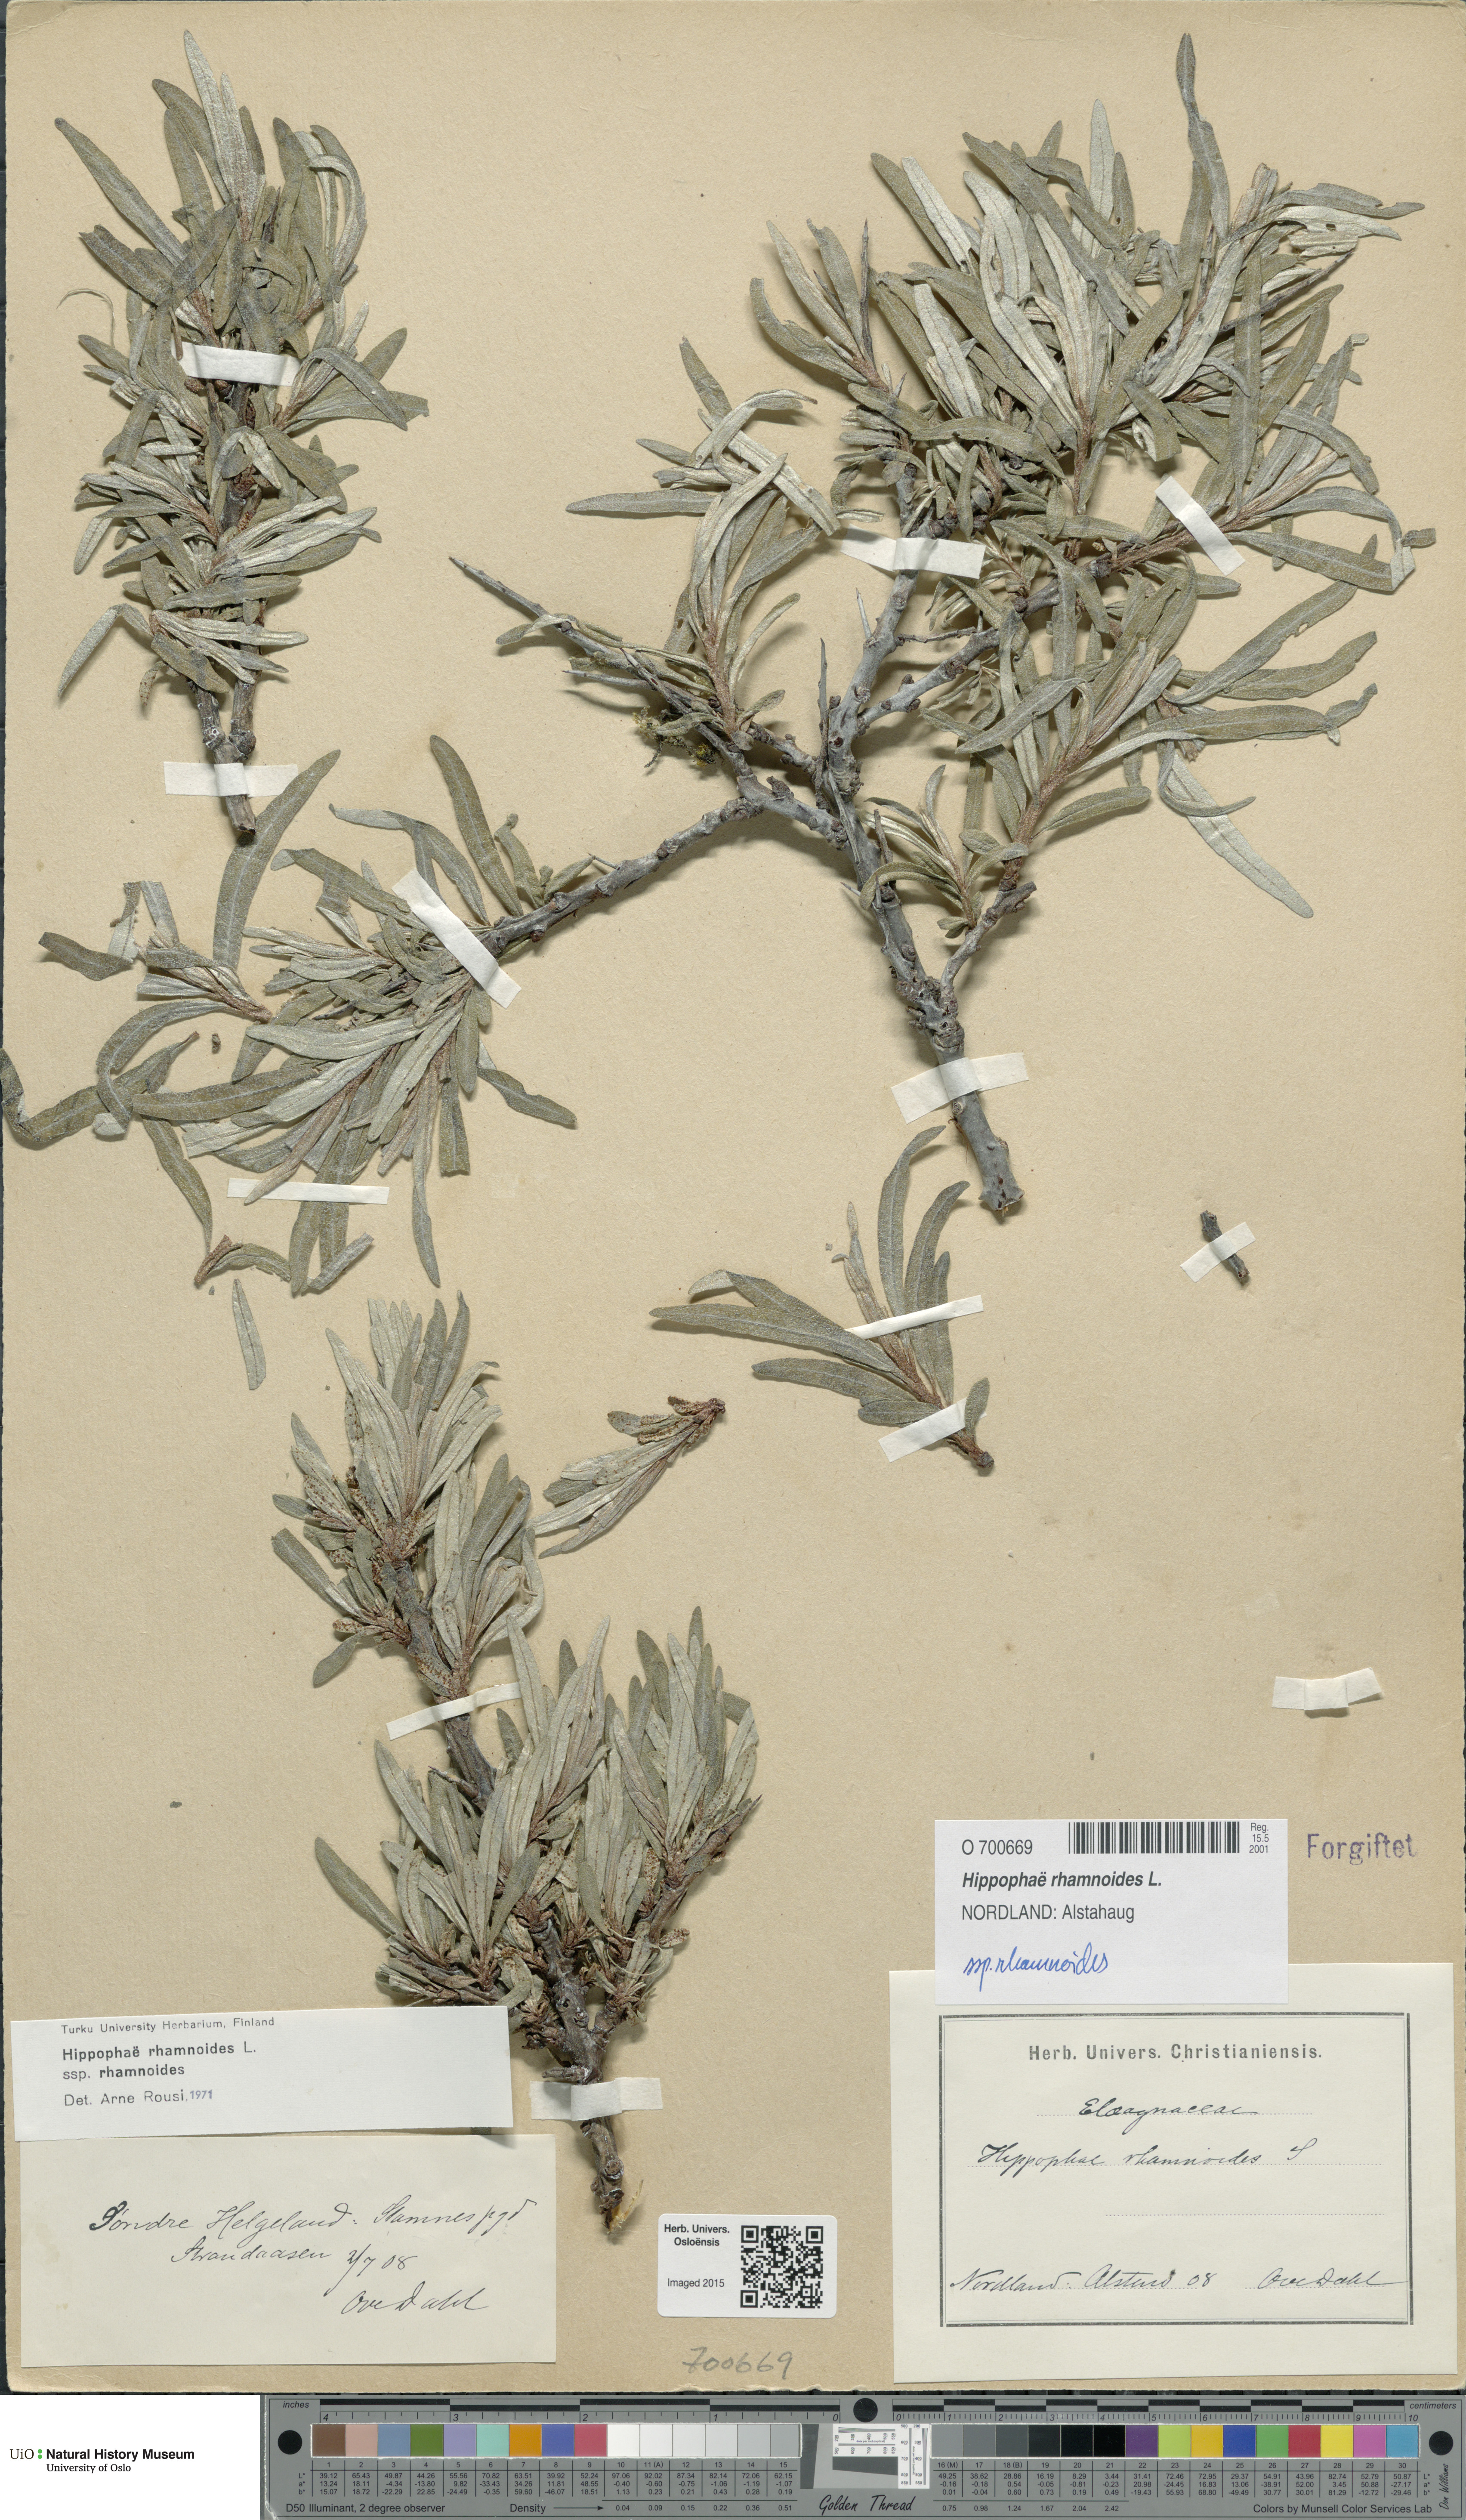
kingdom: Plantae
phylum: Tracheophyta
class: Magnoliopsida
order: Rosales
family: Elaeagnaceae
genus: Hippophae
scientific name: Hippophae rhamnoides
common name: Sea-buckthorn
